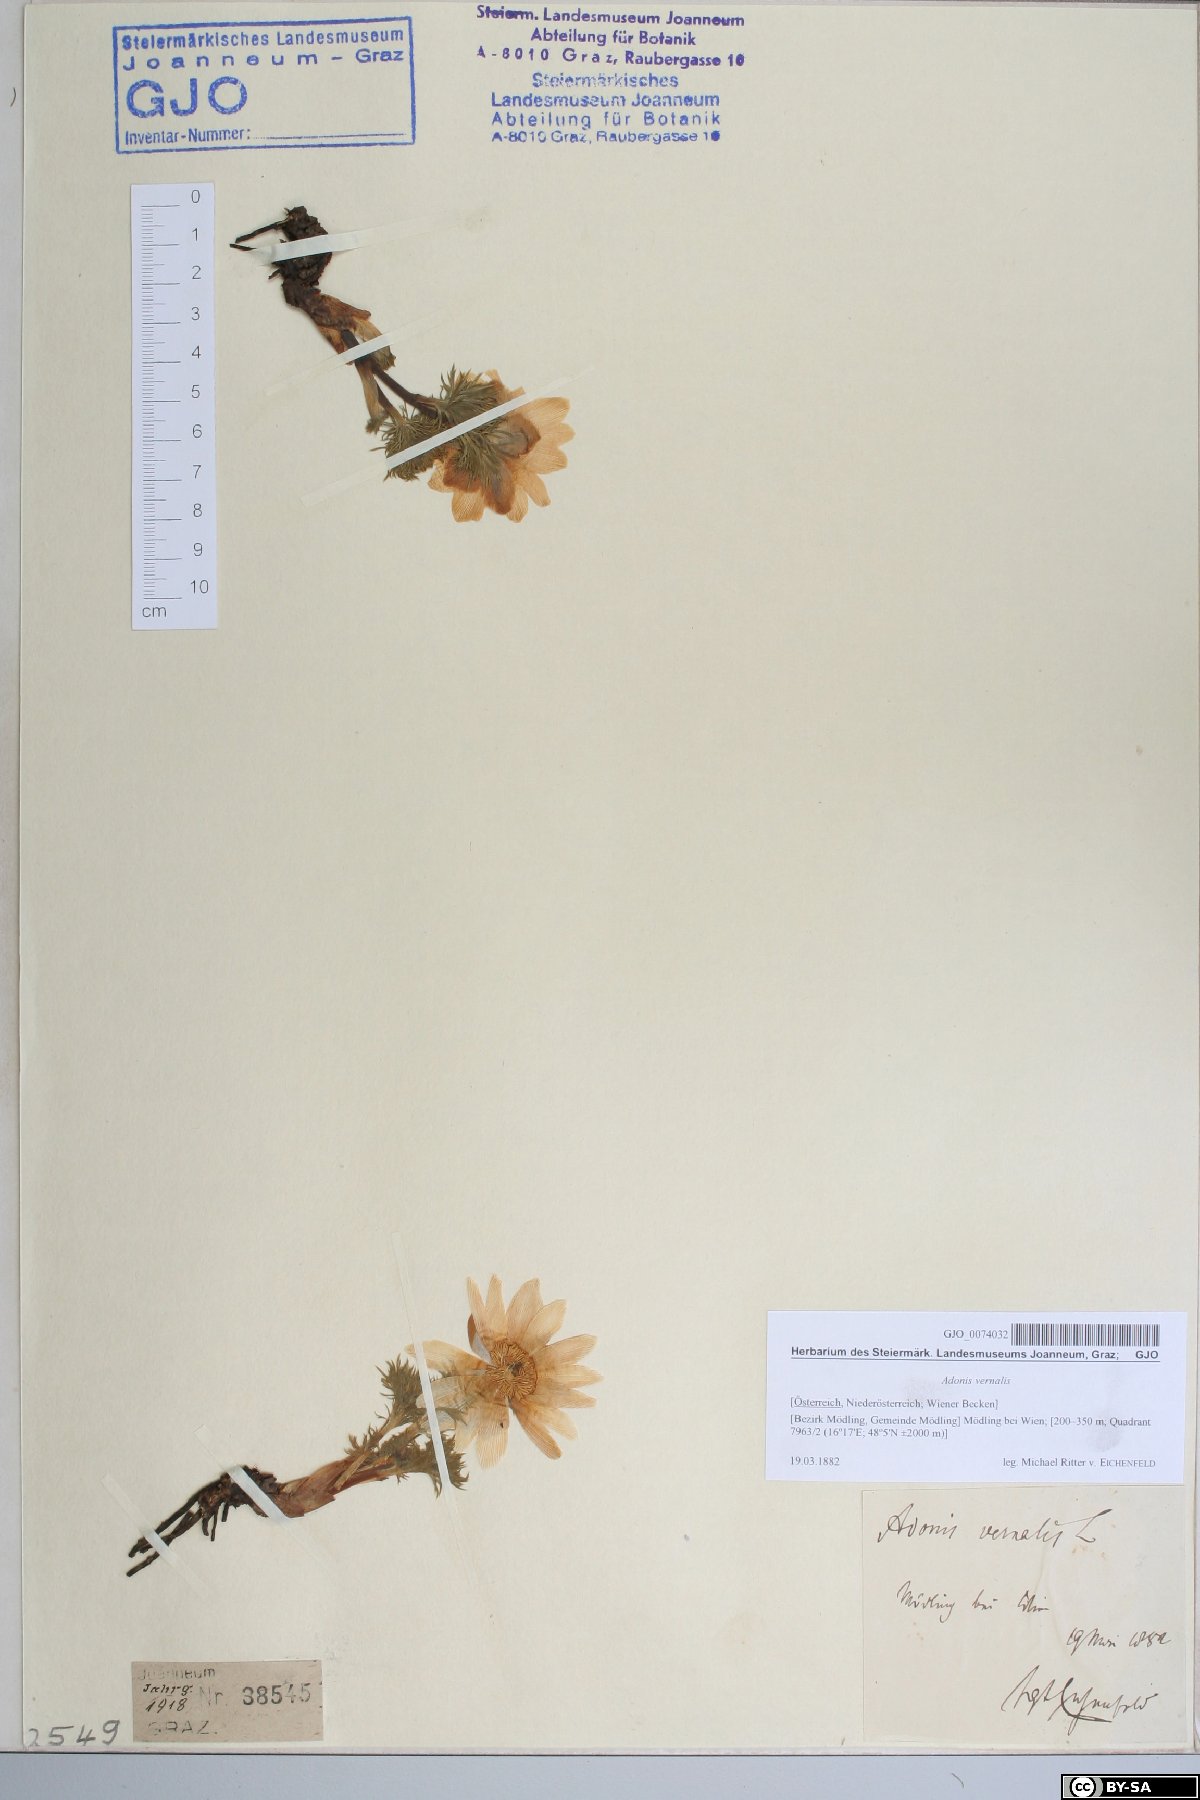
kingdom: Plantae
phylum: Tracheophyta
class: Magnoliopsida
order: Ranunculales
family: Ranunculaceae
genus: Adonis
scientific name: Adonis vernalis
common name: Yellow pheasants-eye
